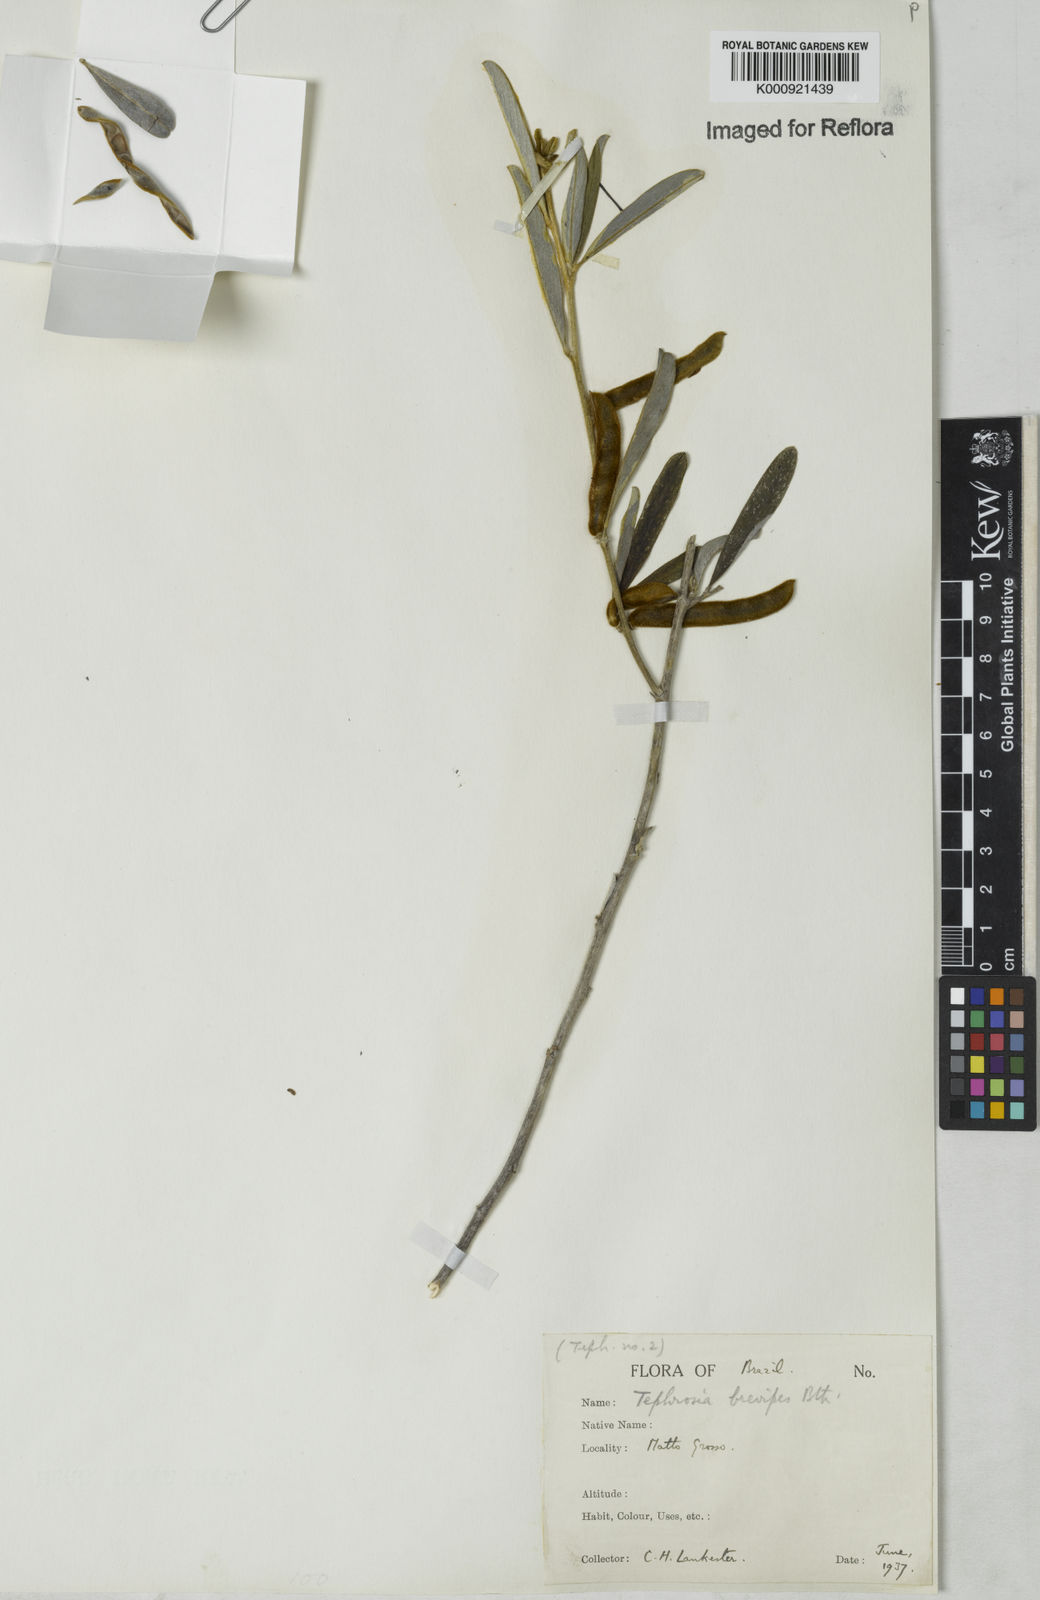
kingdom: Plantae
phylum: Tracheophyta
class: Magnoliopsida
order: Fabales
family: Fabaceae
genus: Tephrosia
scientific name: Tephrosia sessiliflora
